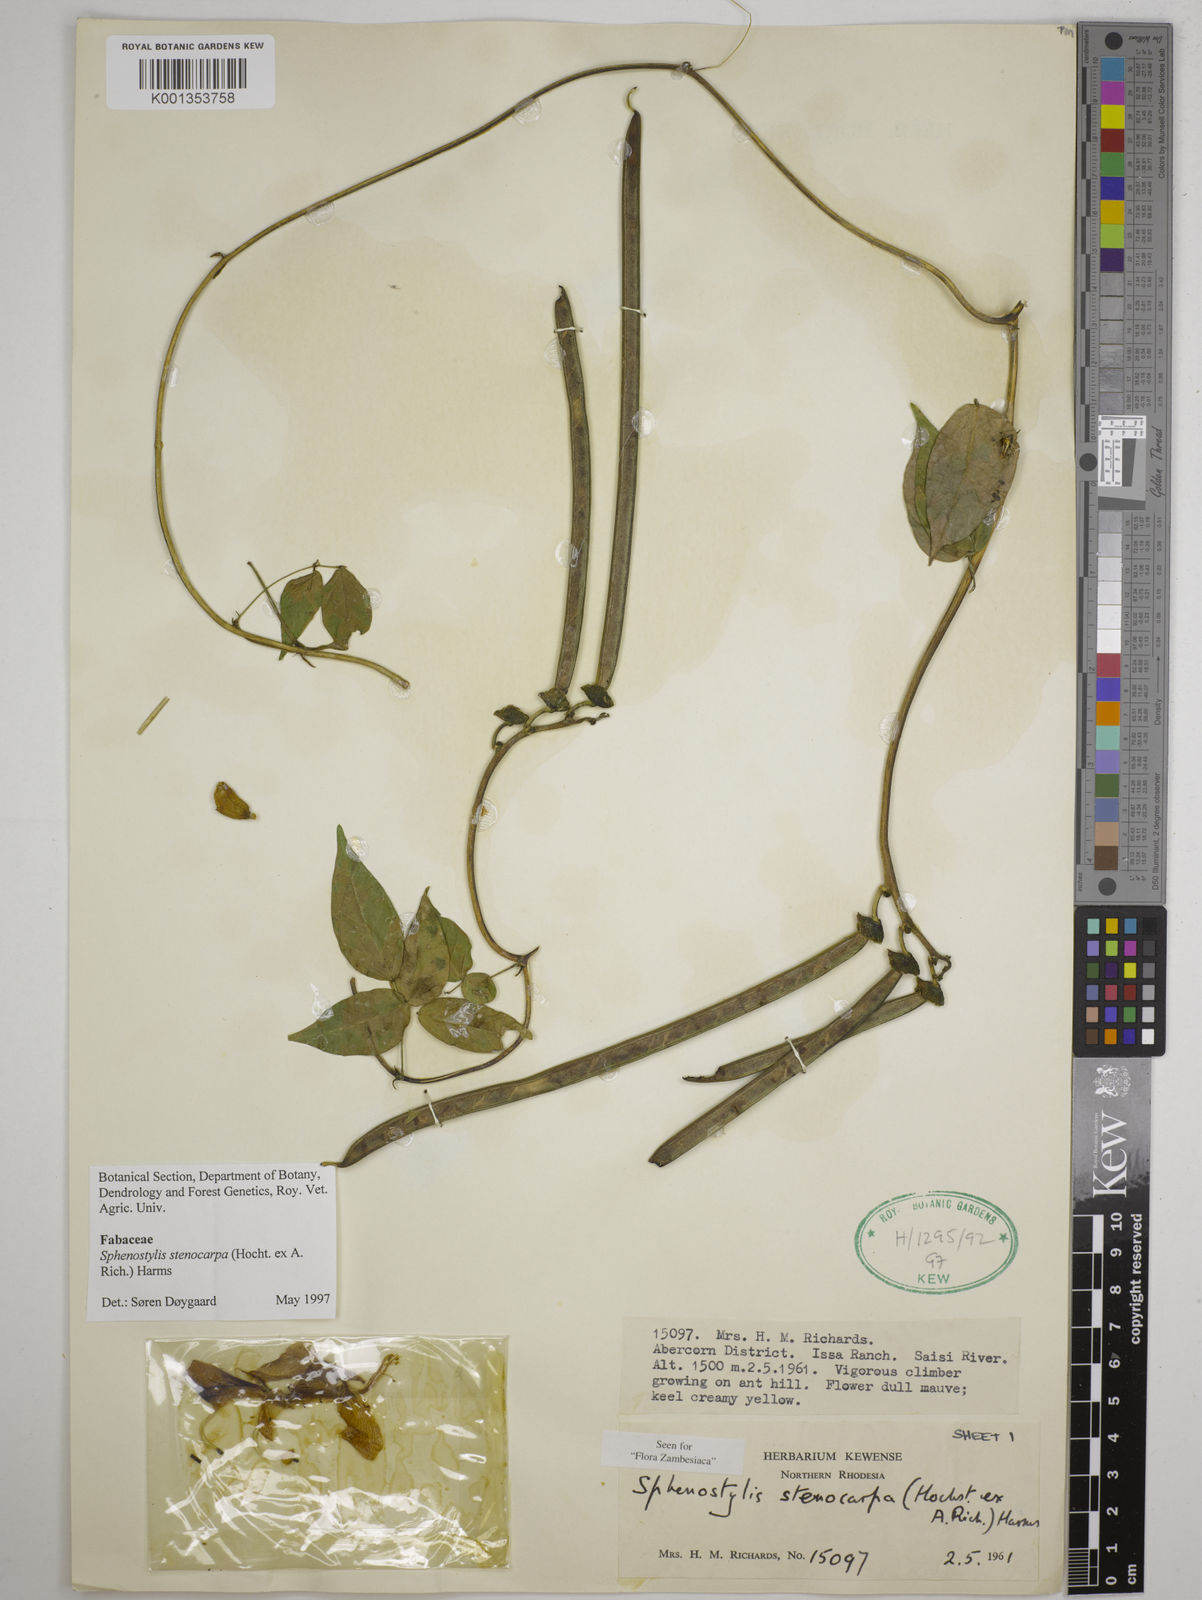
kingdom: Plantae
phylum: Tracheophyta
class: Magnoliopsida
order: Fabales
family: Fabaceae
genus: Sphenostylis
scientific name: Sphenostylis stenocarpa
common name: Yam-pea
